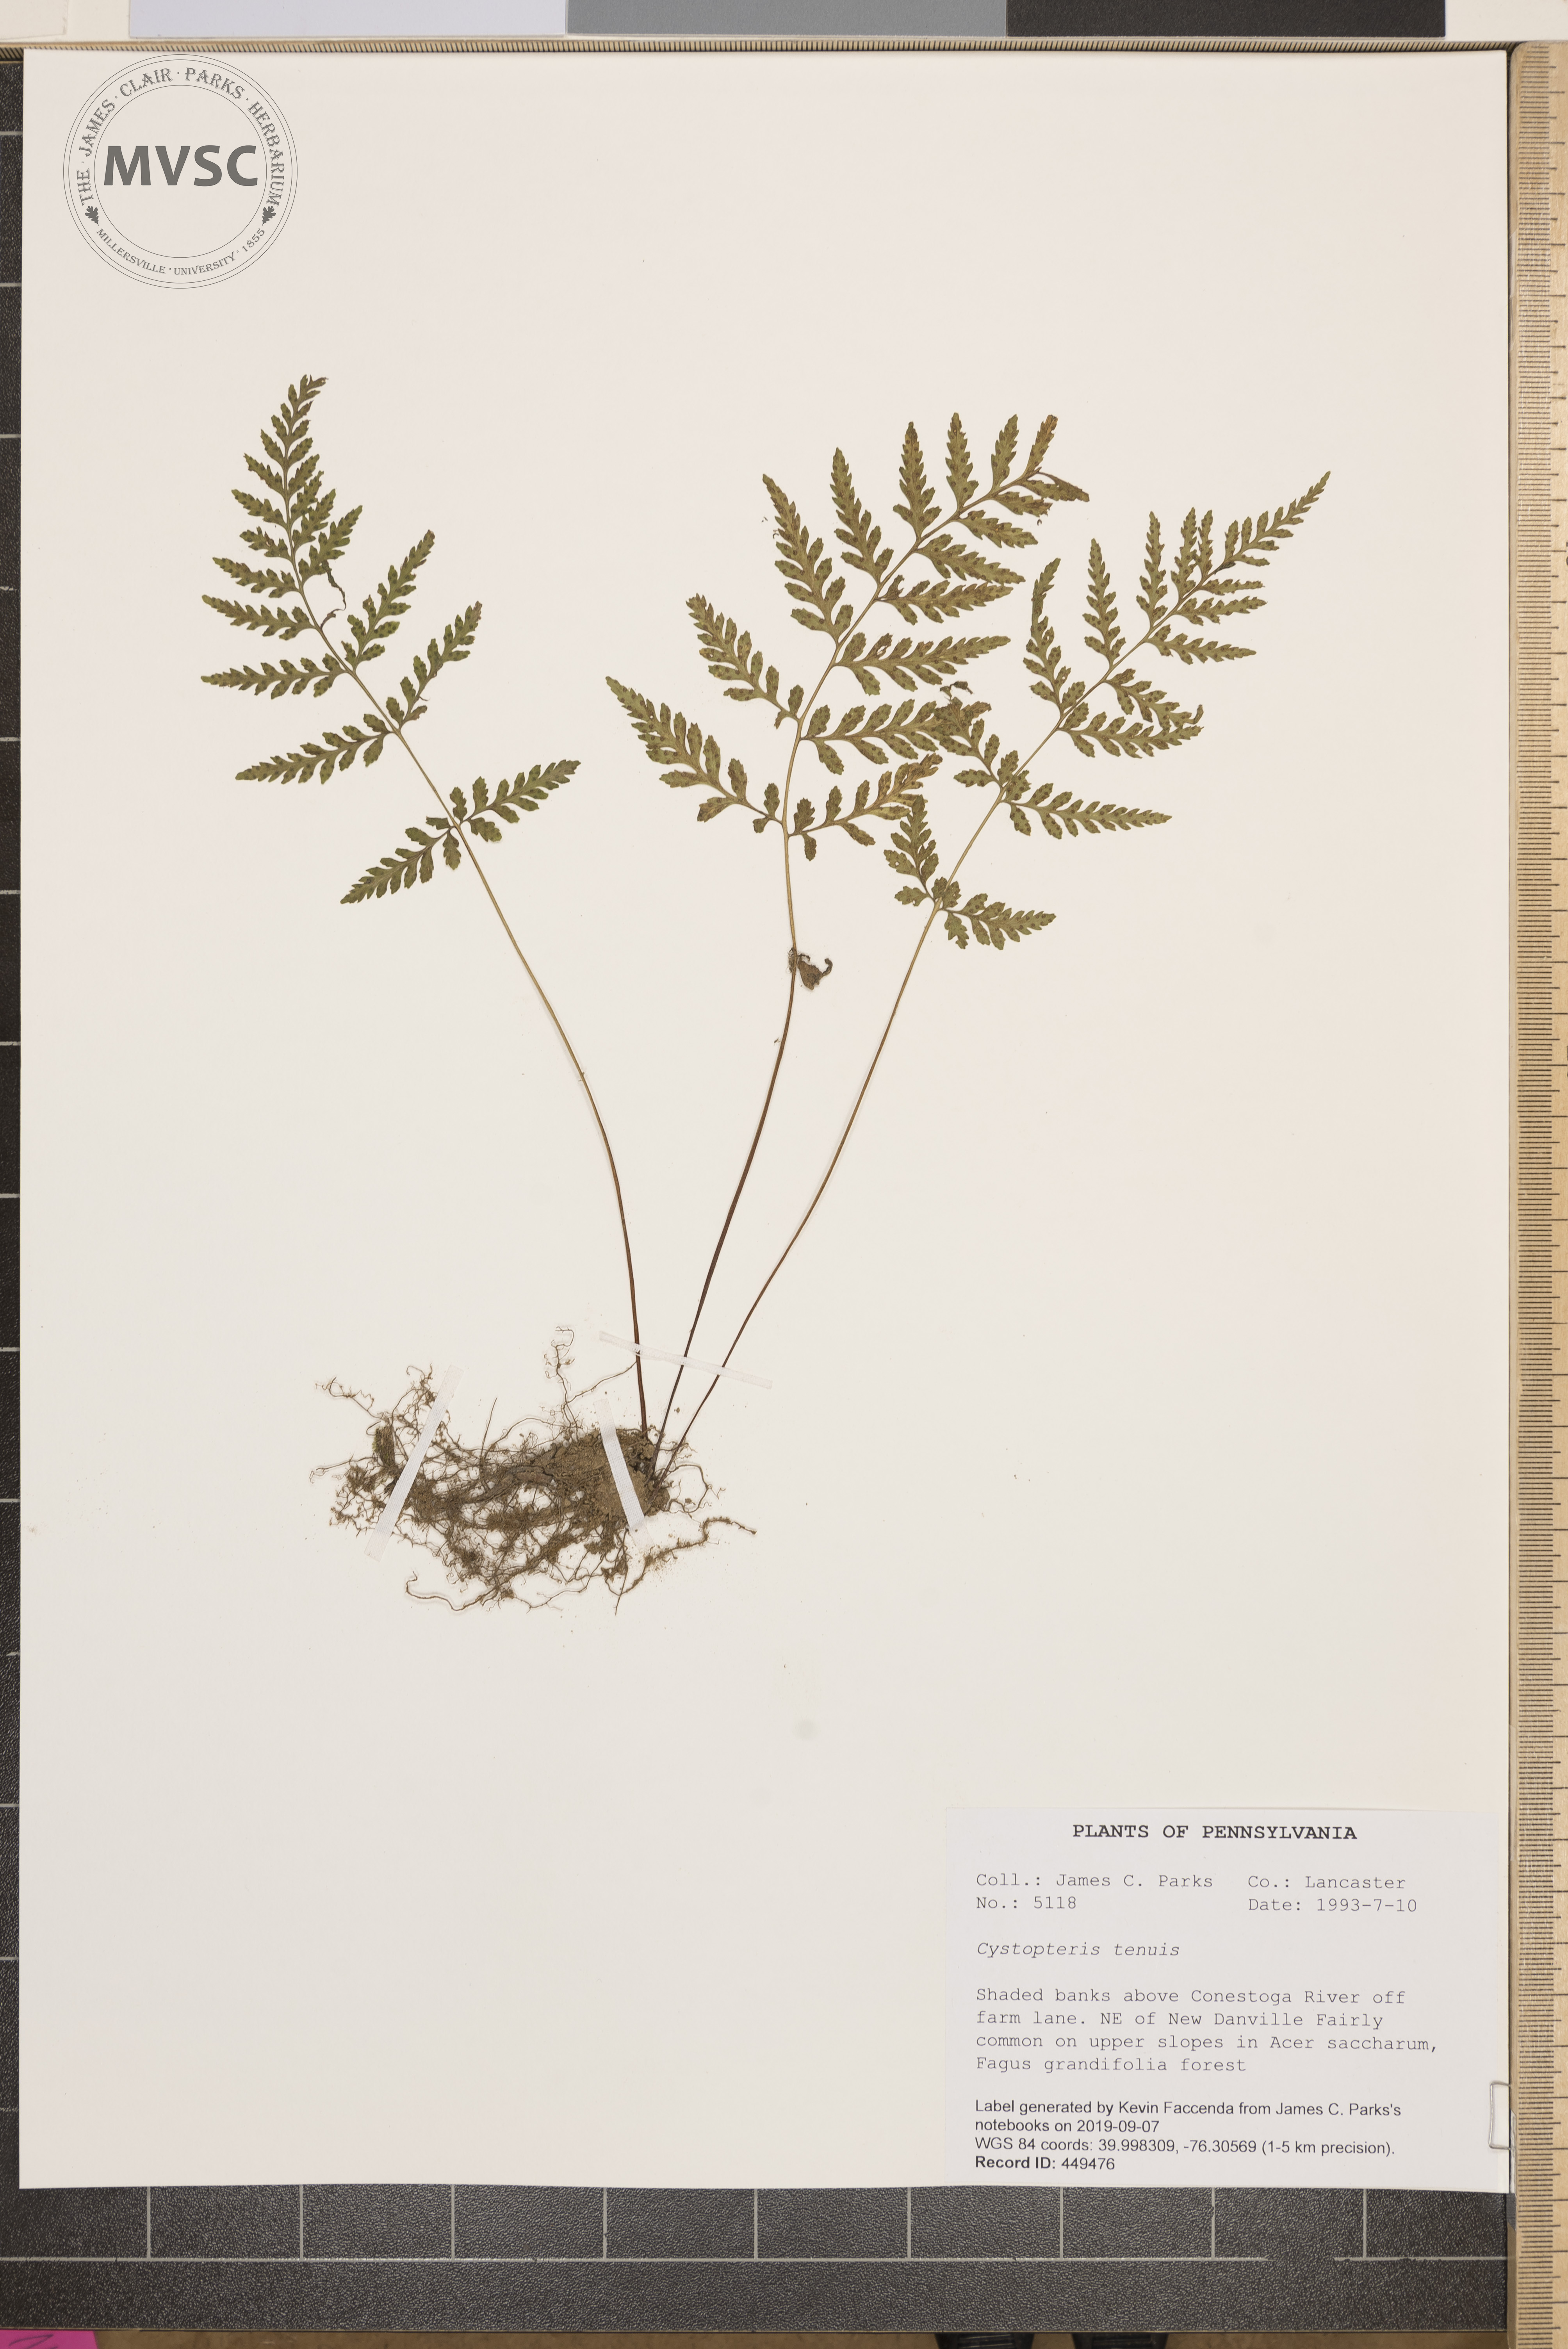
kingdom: Plantae
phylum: Tracheophyta
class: Polypodiopsida
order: Polypodiales
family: Cystopteridaceae
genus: Cystopteris
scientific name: Cystopteris tenuis
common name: Mackay's brittle fern
